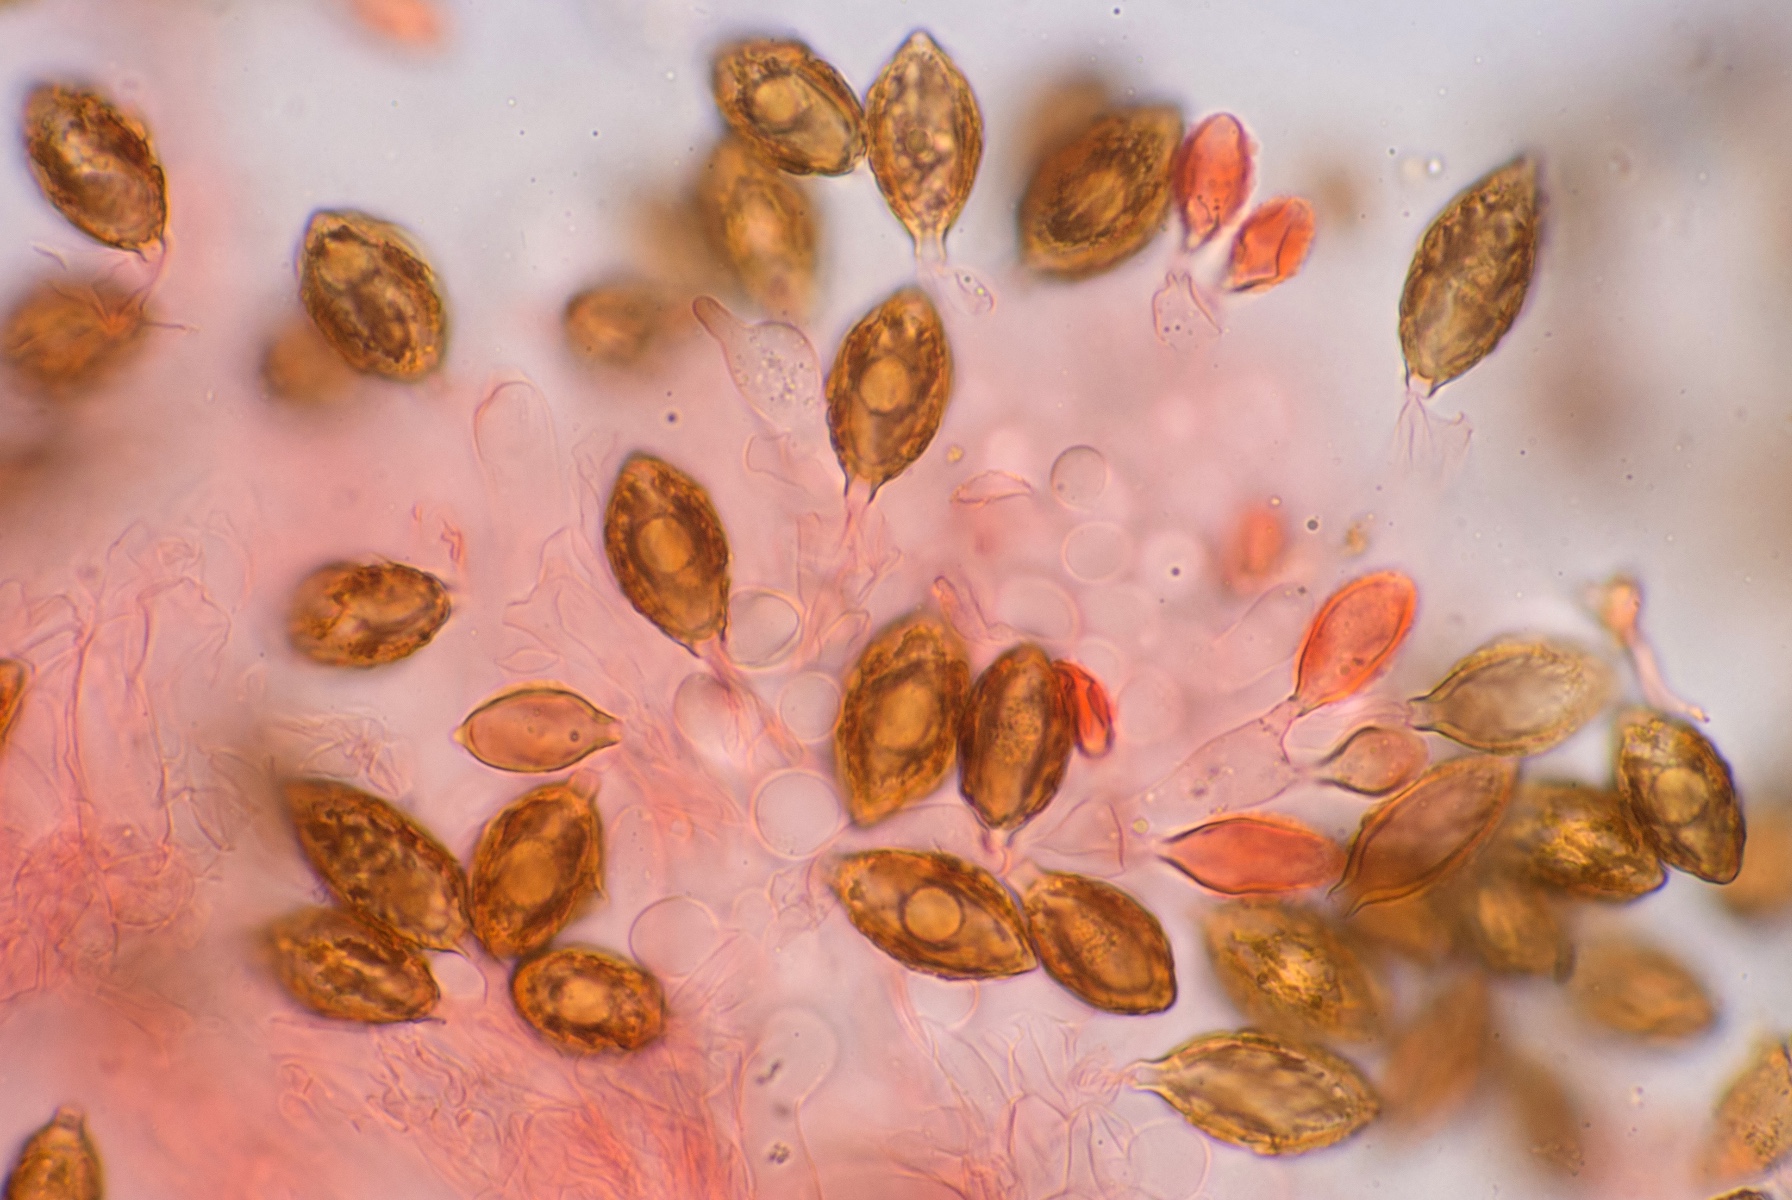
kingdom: Fungi
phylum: Basidiomycota
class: Agaricomycetes
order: Agaricales
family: Hymenogastraceae
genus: Hymenogaster
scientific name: Hymenogaster
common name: knoldtrøffel
